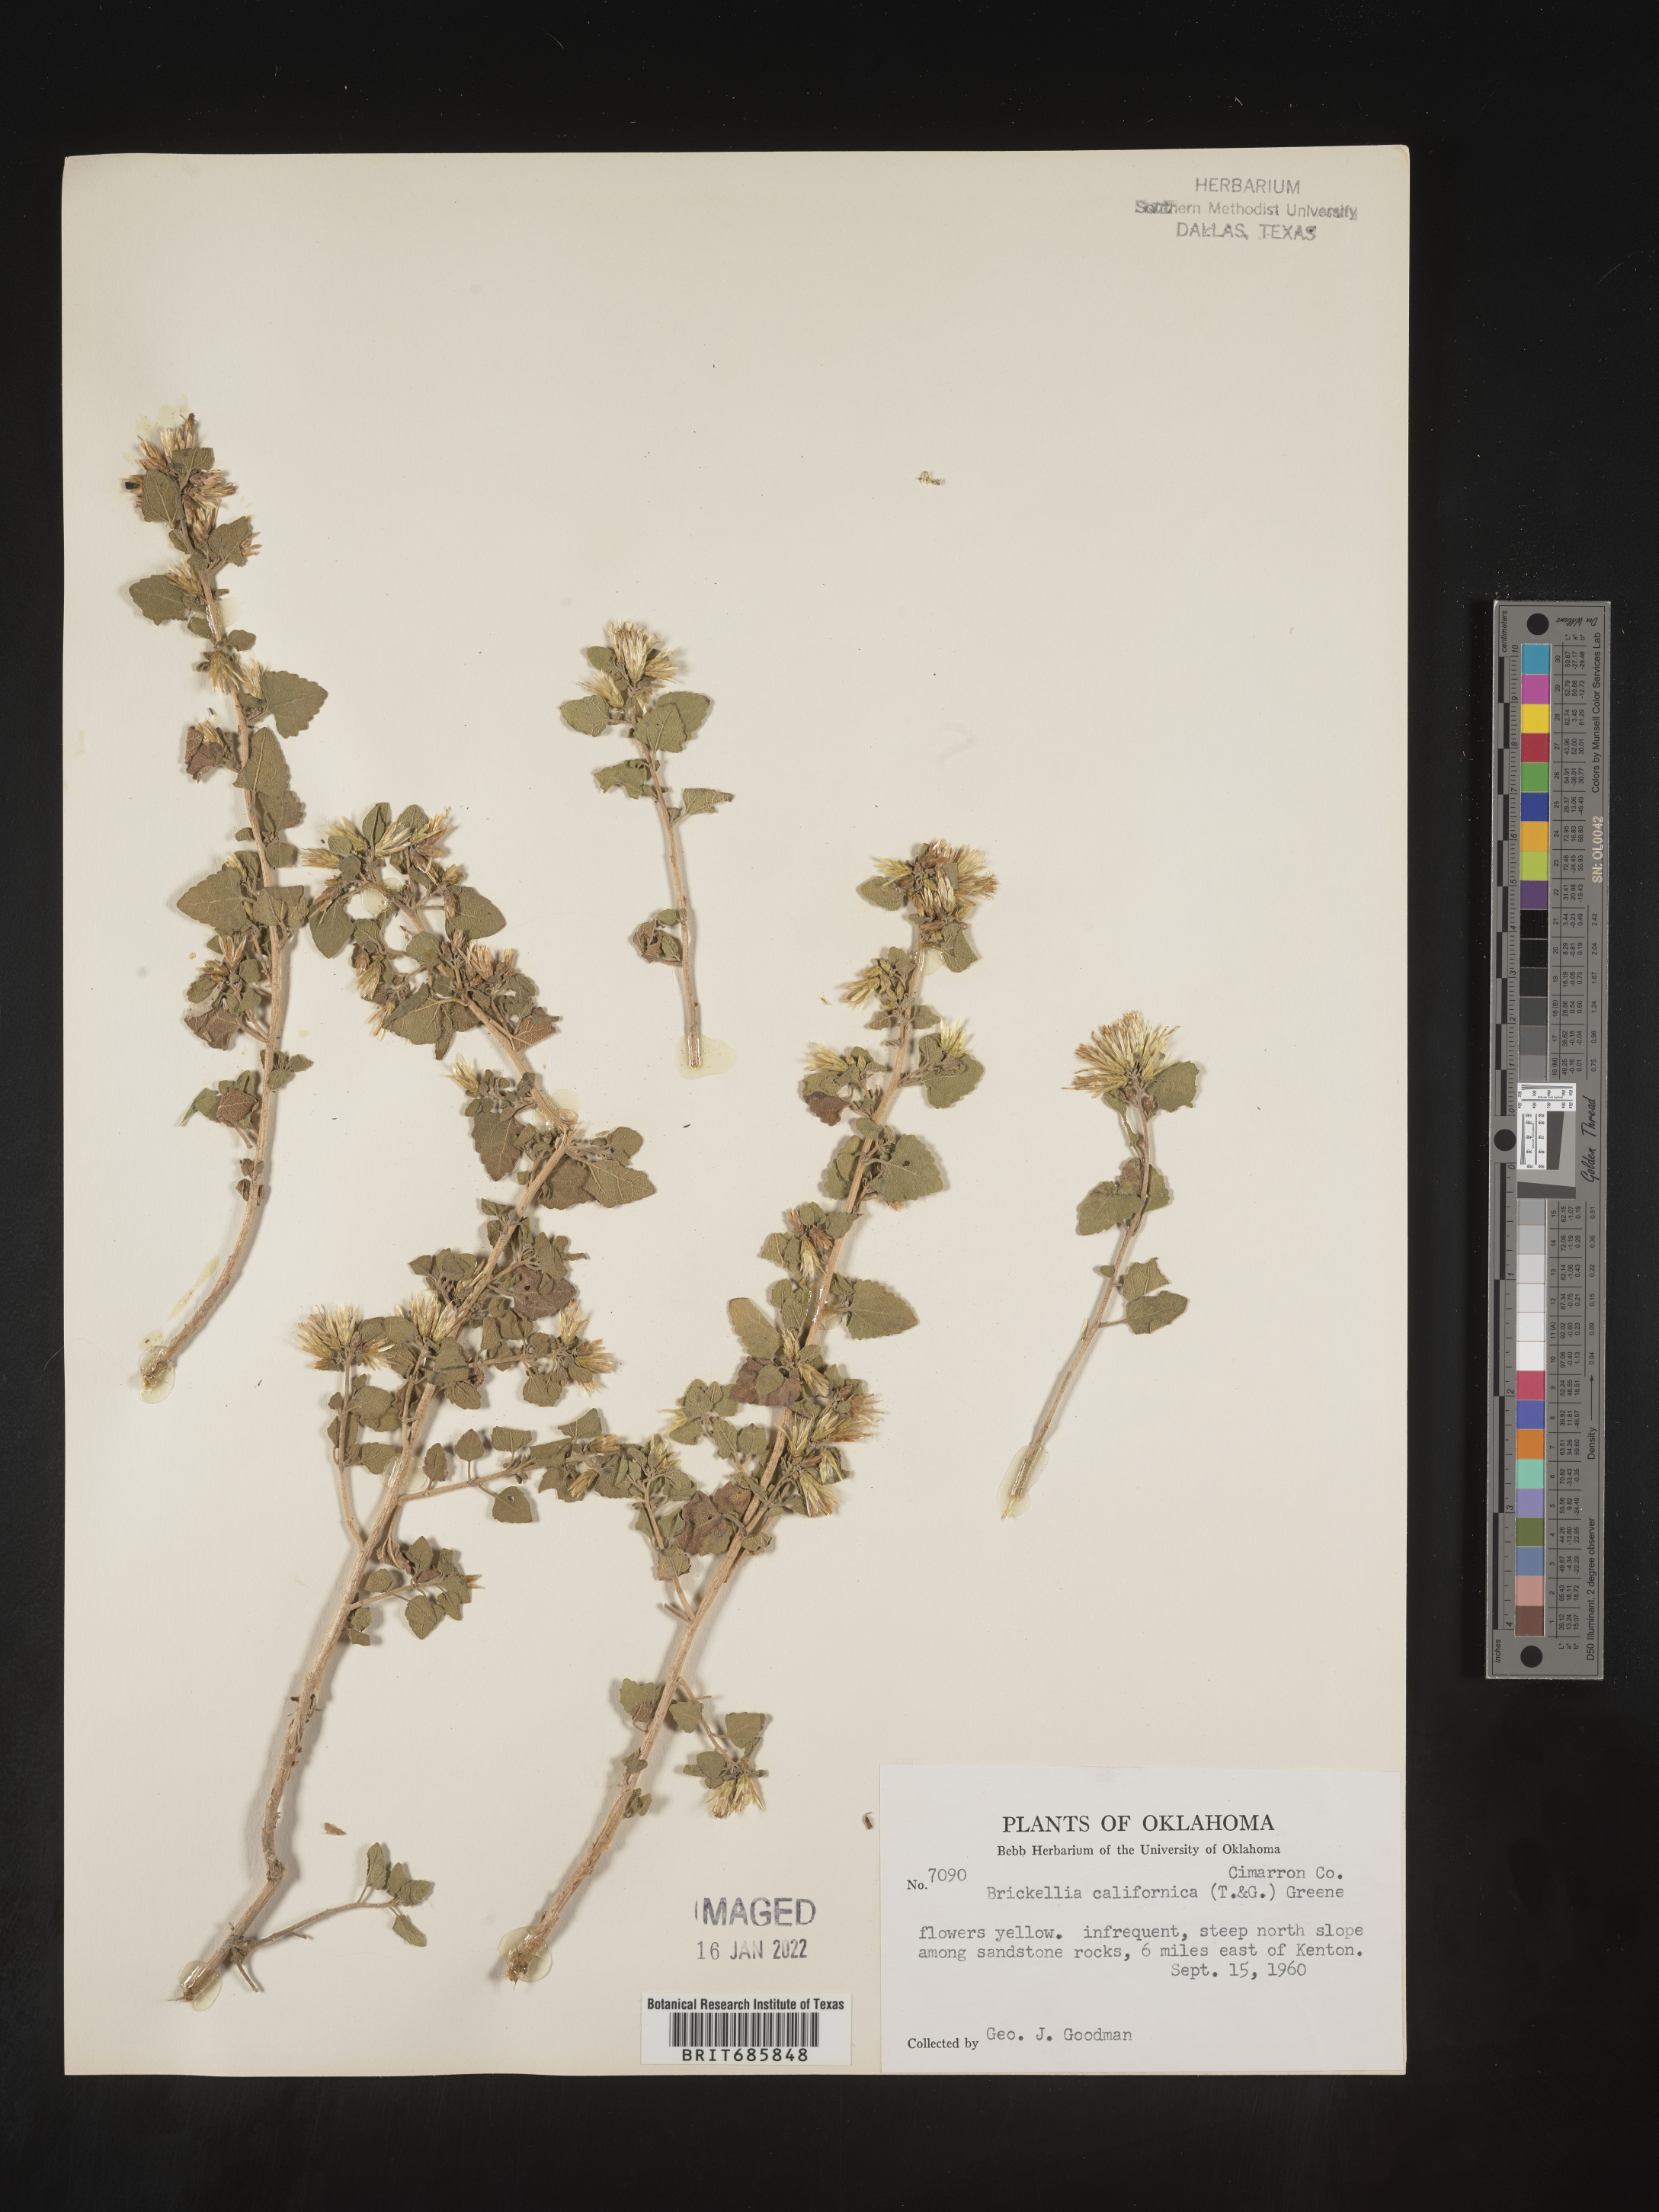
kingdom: Plantae
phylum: Tracheophyta
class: Magnoliopsida
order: Asterales
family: Asteraceae
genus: Brickellia
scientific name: Brickellia californica
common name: California brickellbush
